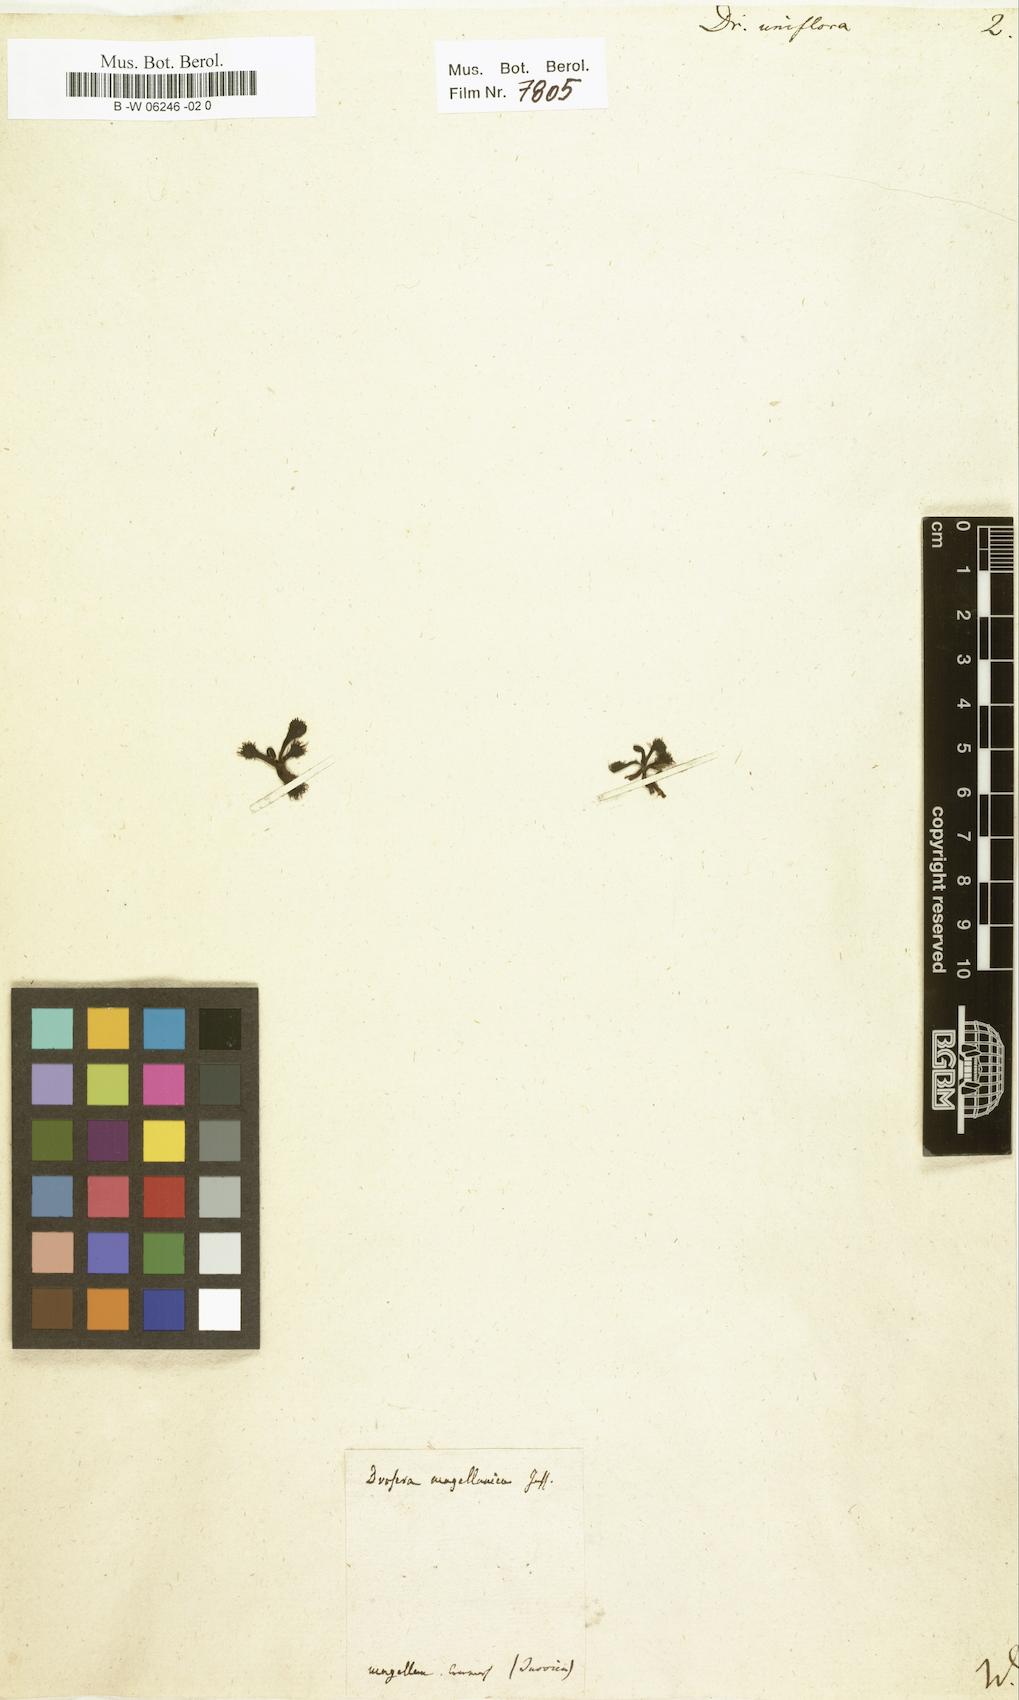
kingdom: Plantae
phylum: Tracheophyta
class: Magnoliopsida
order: Caryophyllales
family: Droseraceae
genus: Drosera
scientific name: Drosera uniflora
